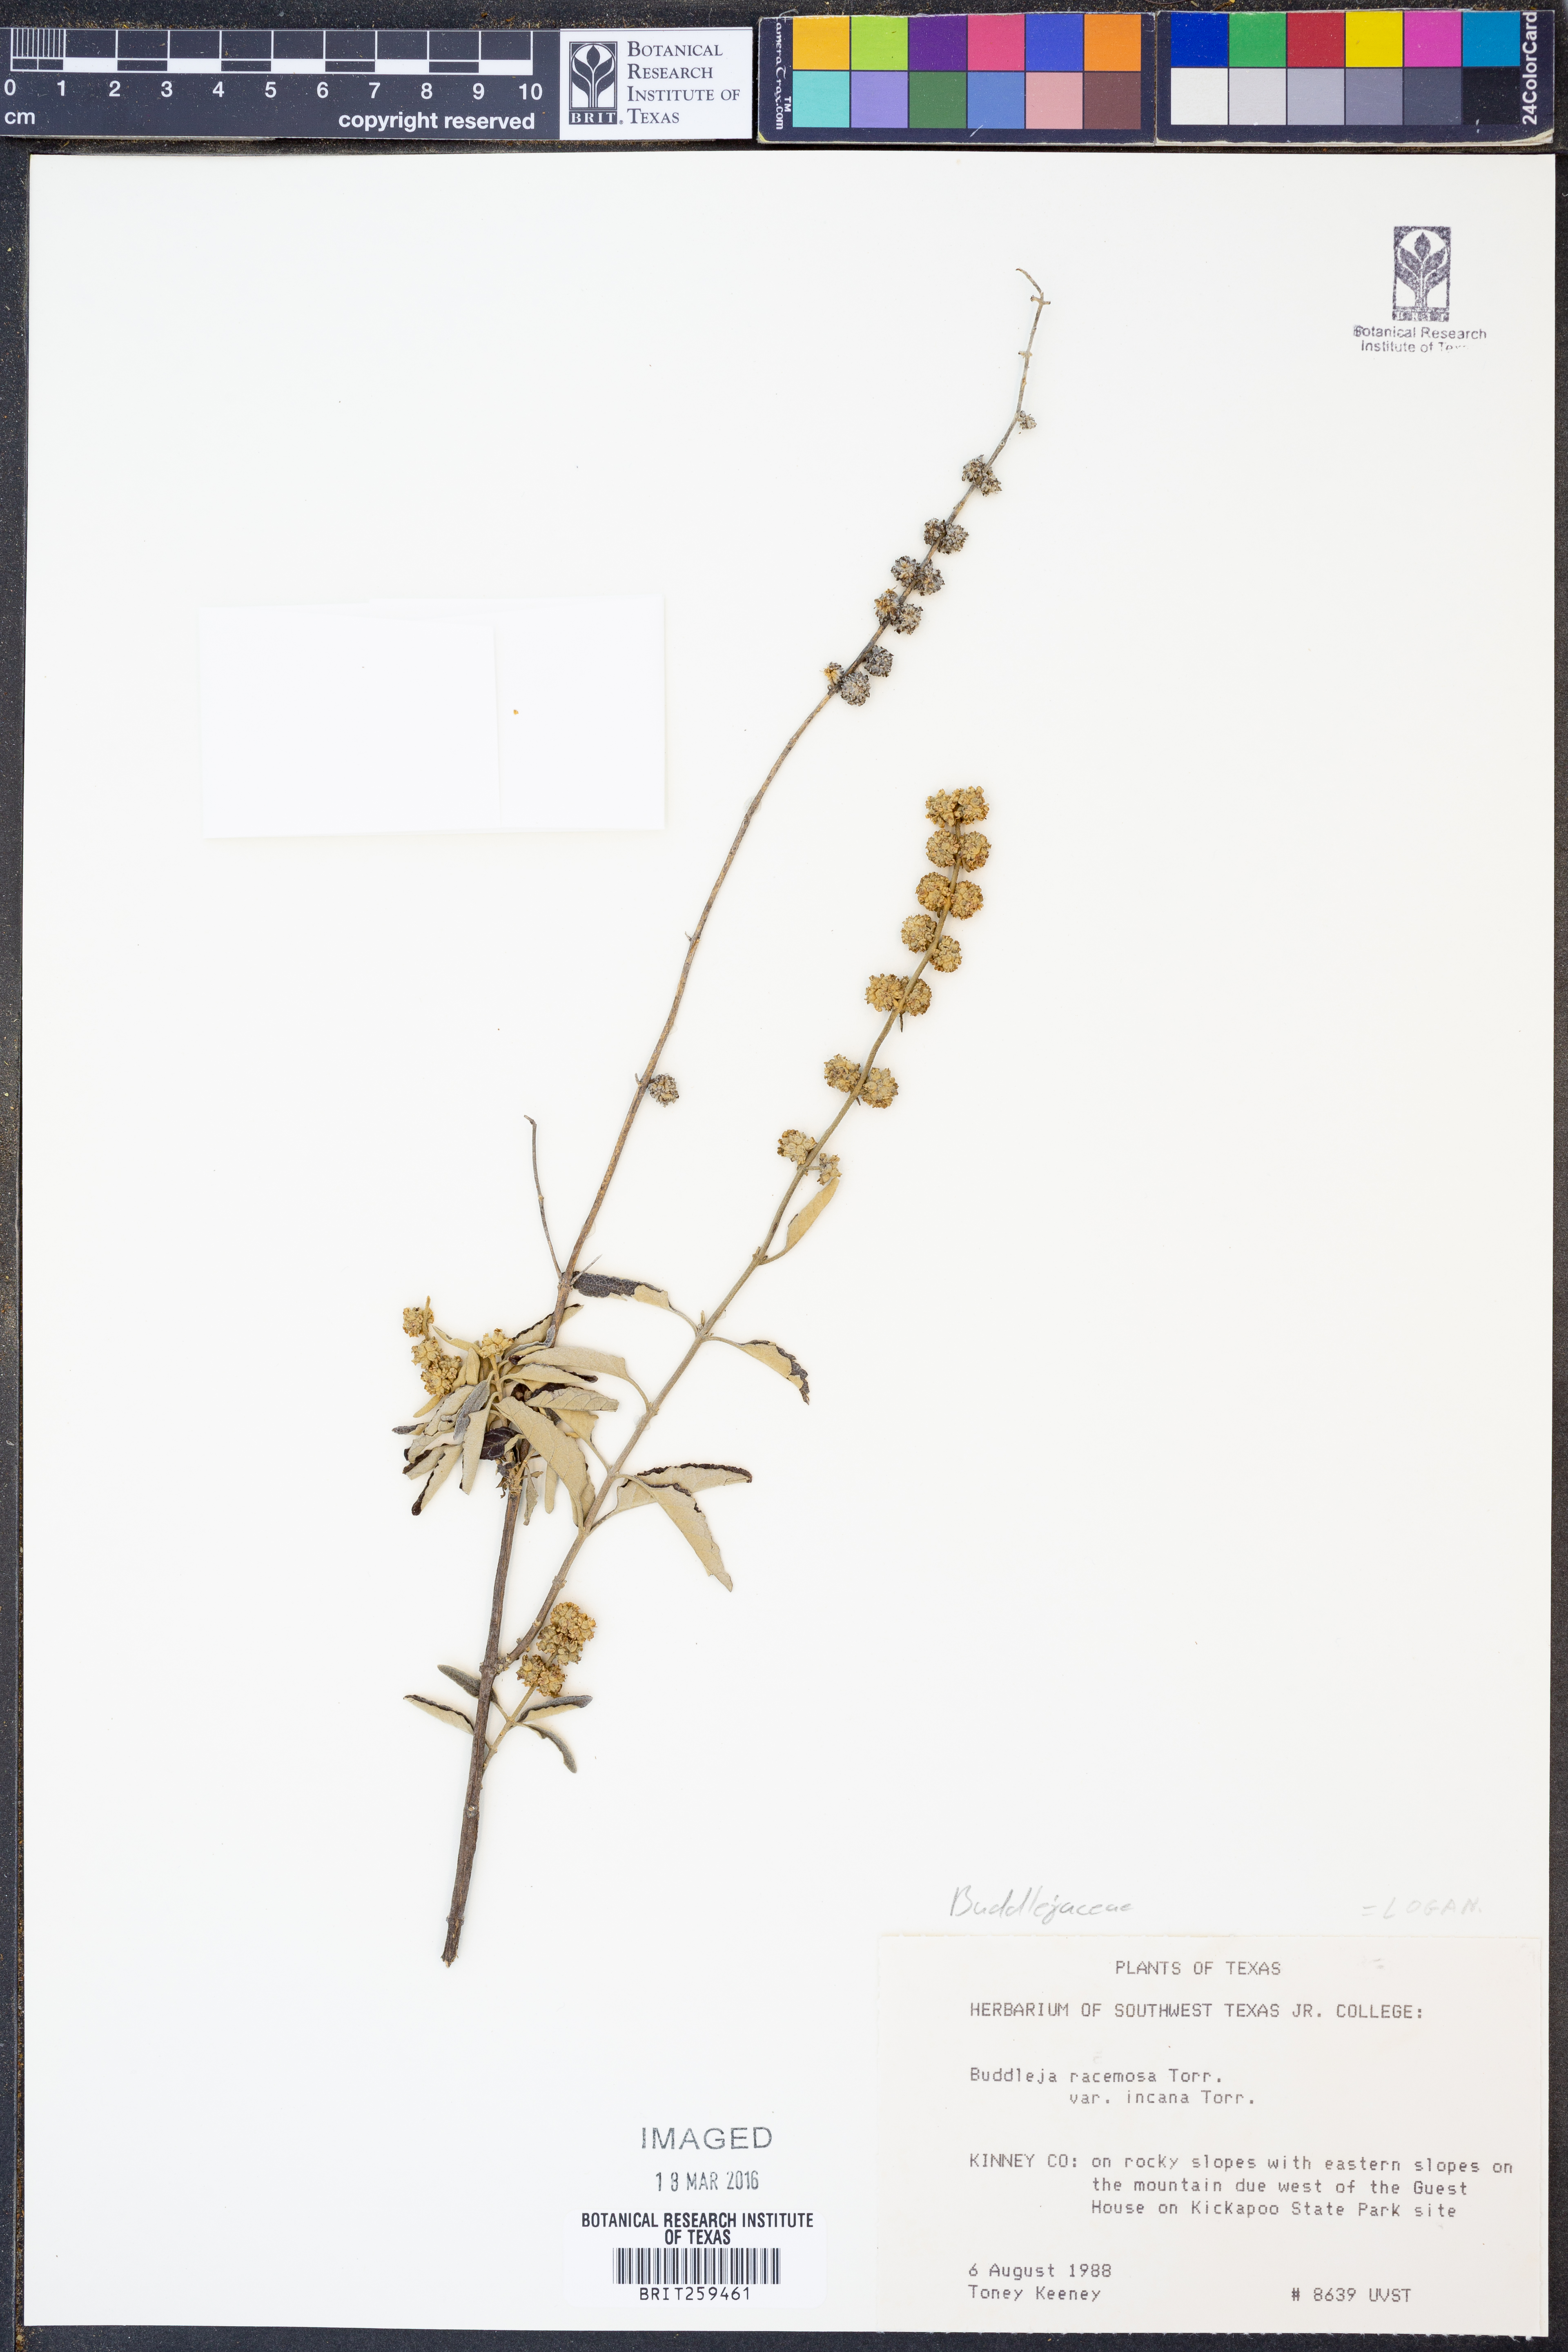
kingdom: Plantae
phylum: Tracheophyta
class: Magnoliopsida
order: Lamiales
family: Scrophulariaceae
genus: Buddleja
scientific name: Buddleja racemosa
